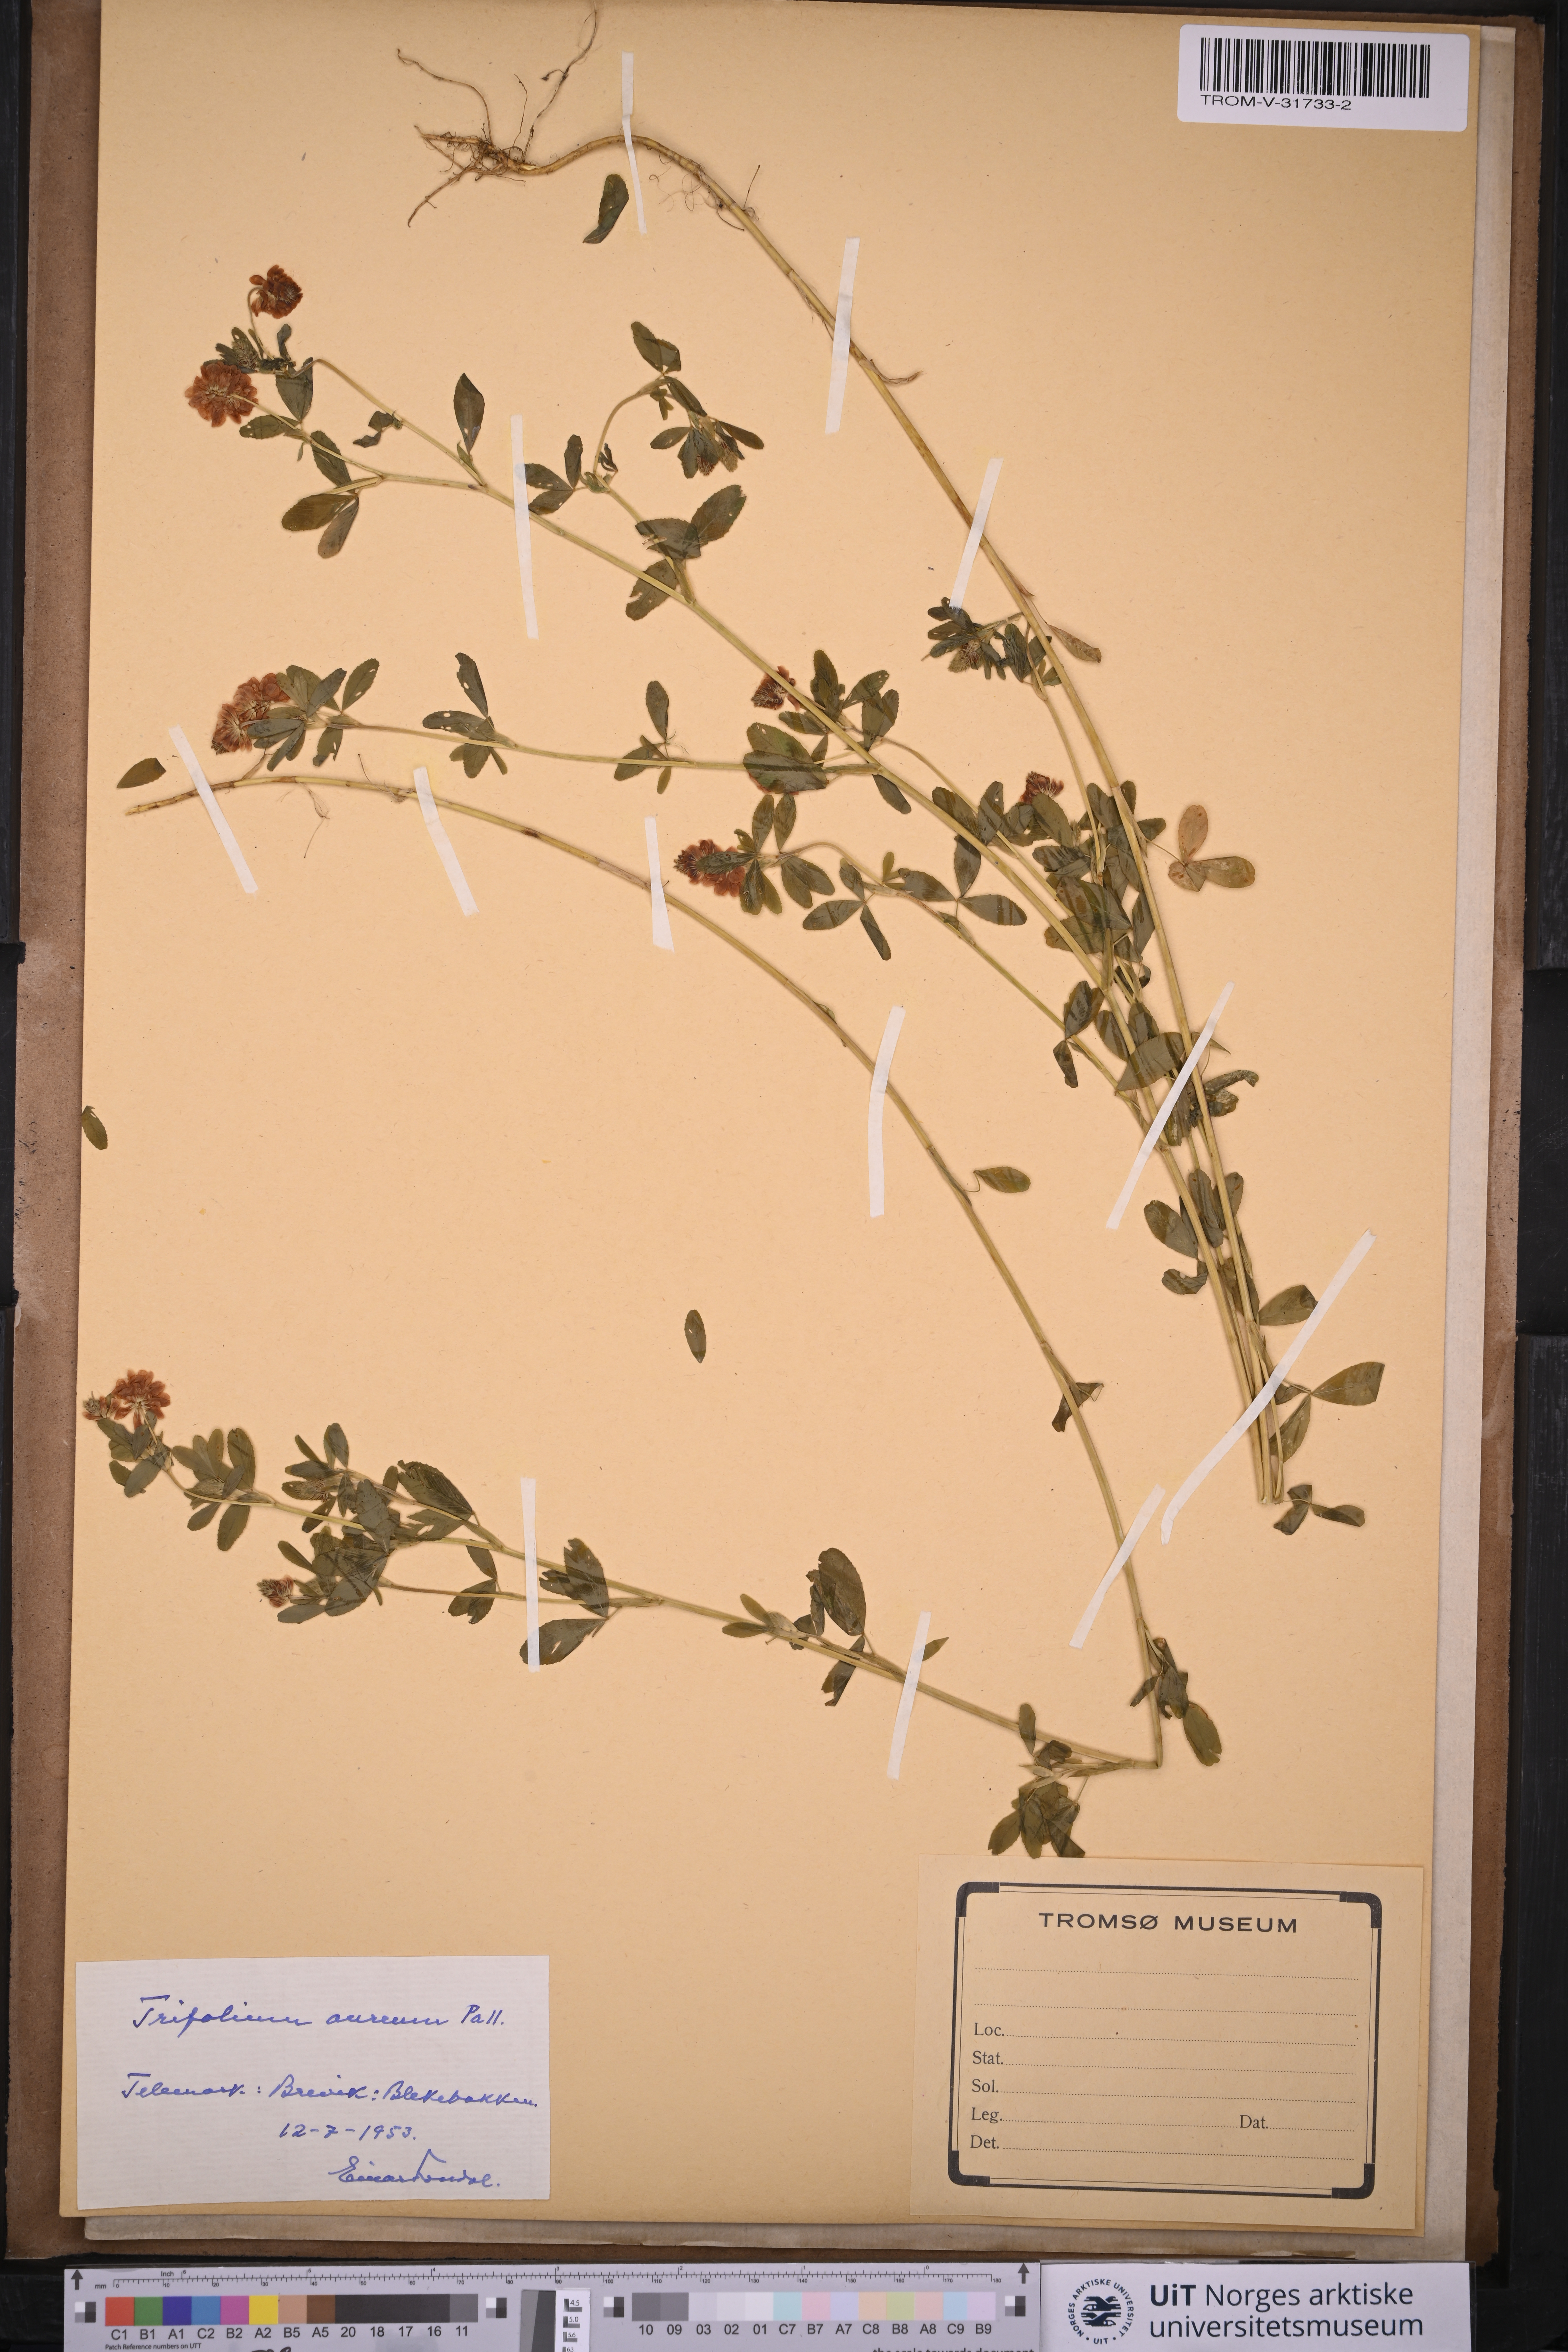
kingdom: Plantae
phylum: Tracheophyta
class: Magnoliopsida
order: Fabales
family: Fabaceae
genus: Trifolium
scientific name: Trifolium aureum
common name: Golden clover
